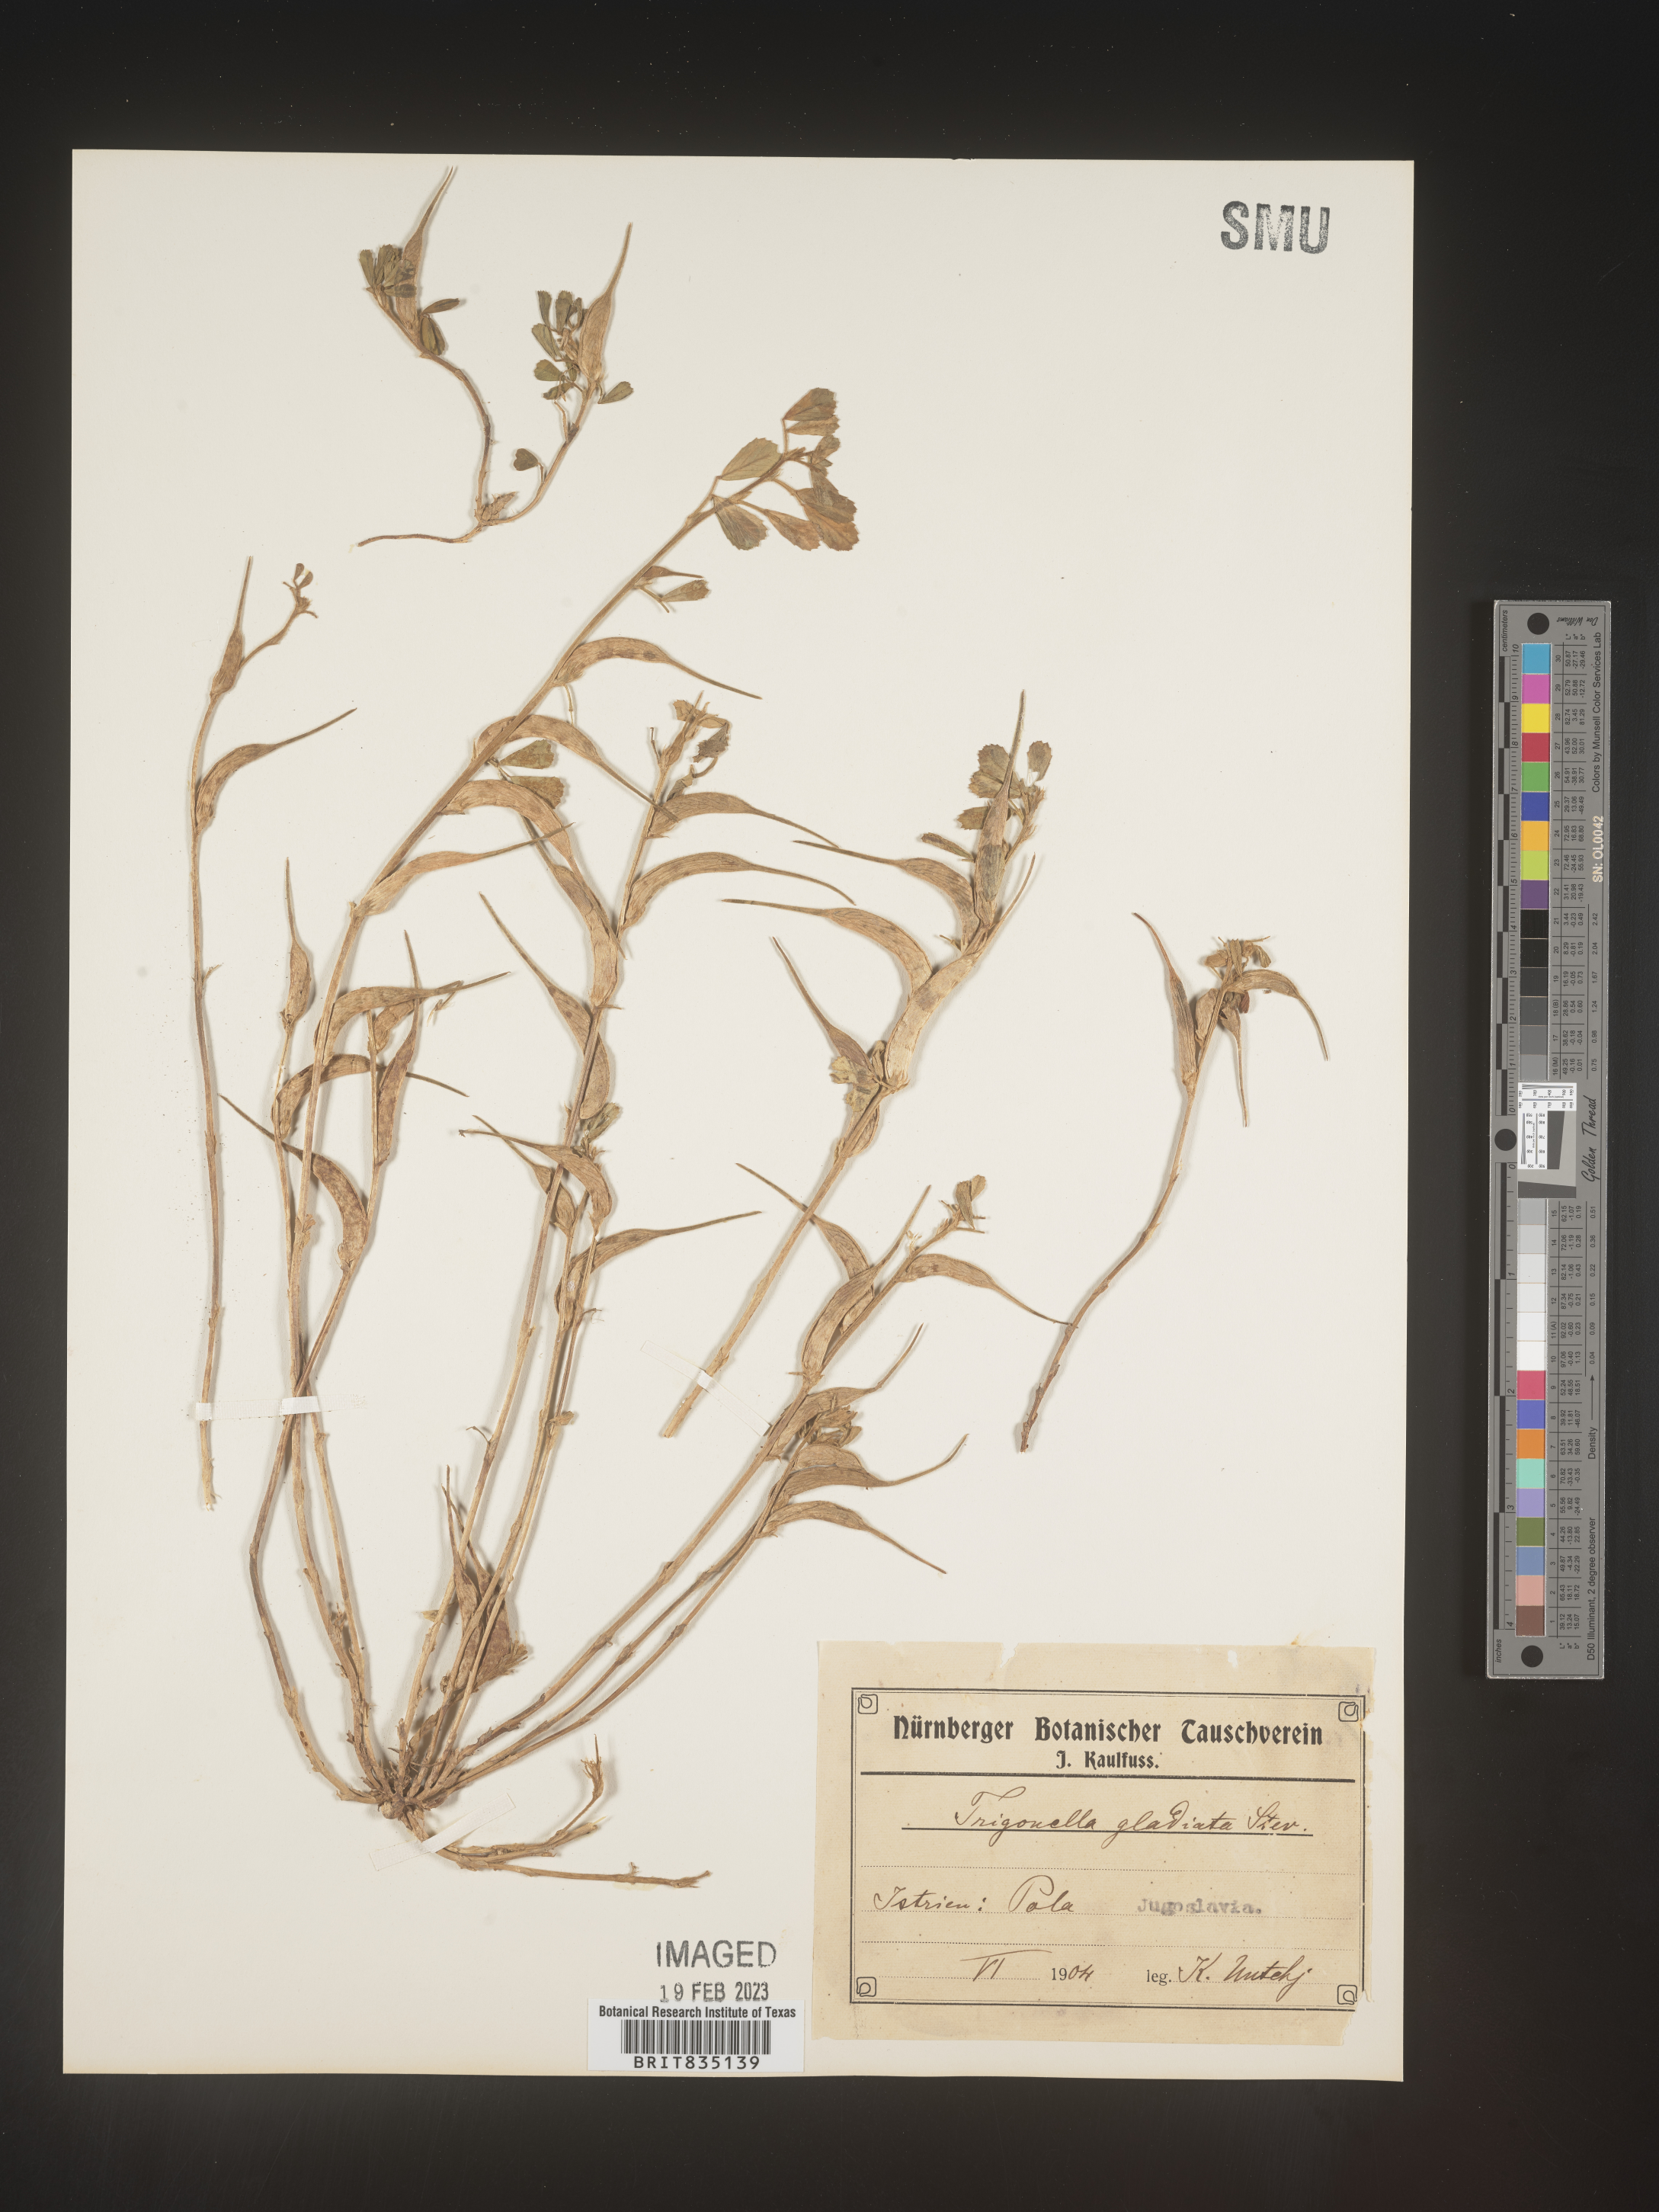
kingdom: Plantae
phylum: Tracheophyta
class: Magnoliopsida
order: Fabales
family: Fabaceae
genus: Trigonella
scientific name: Trigonella
